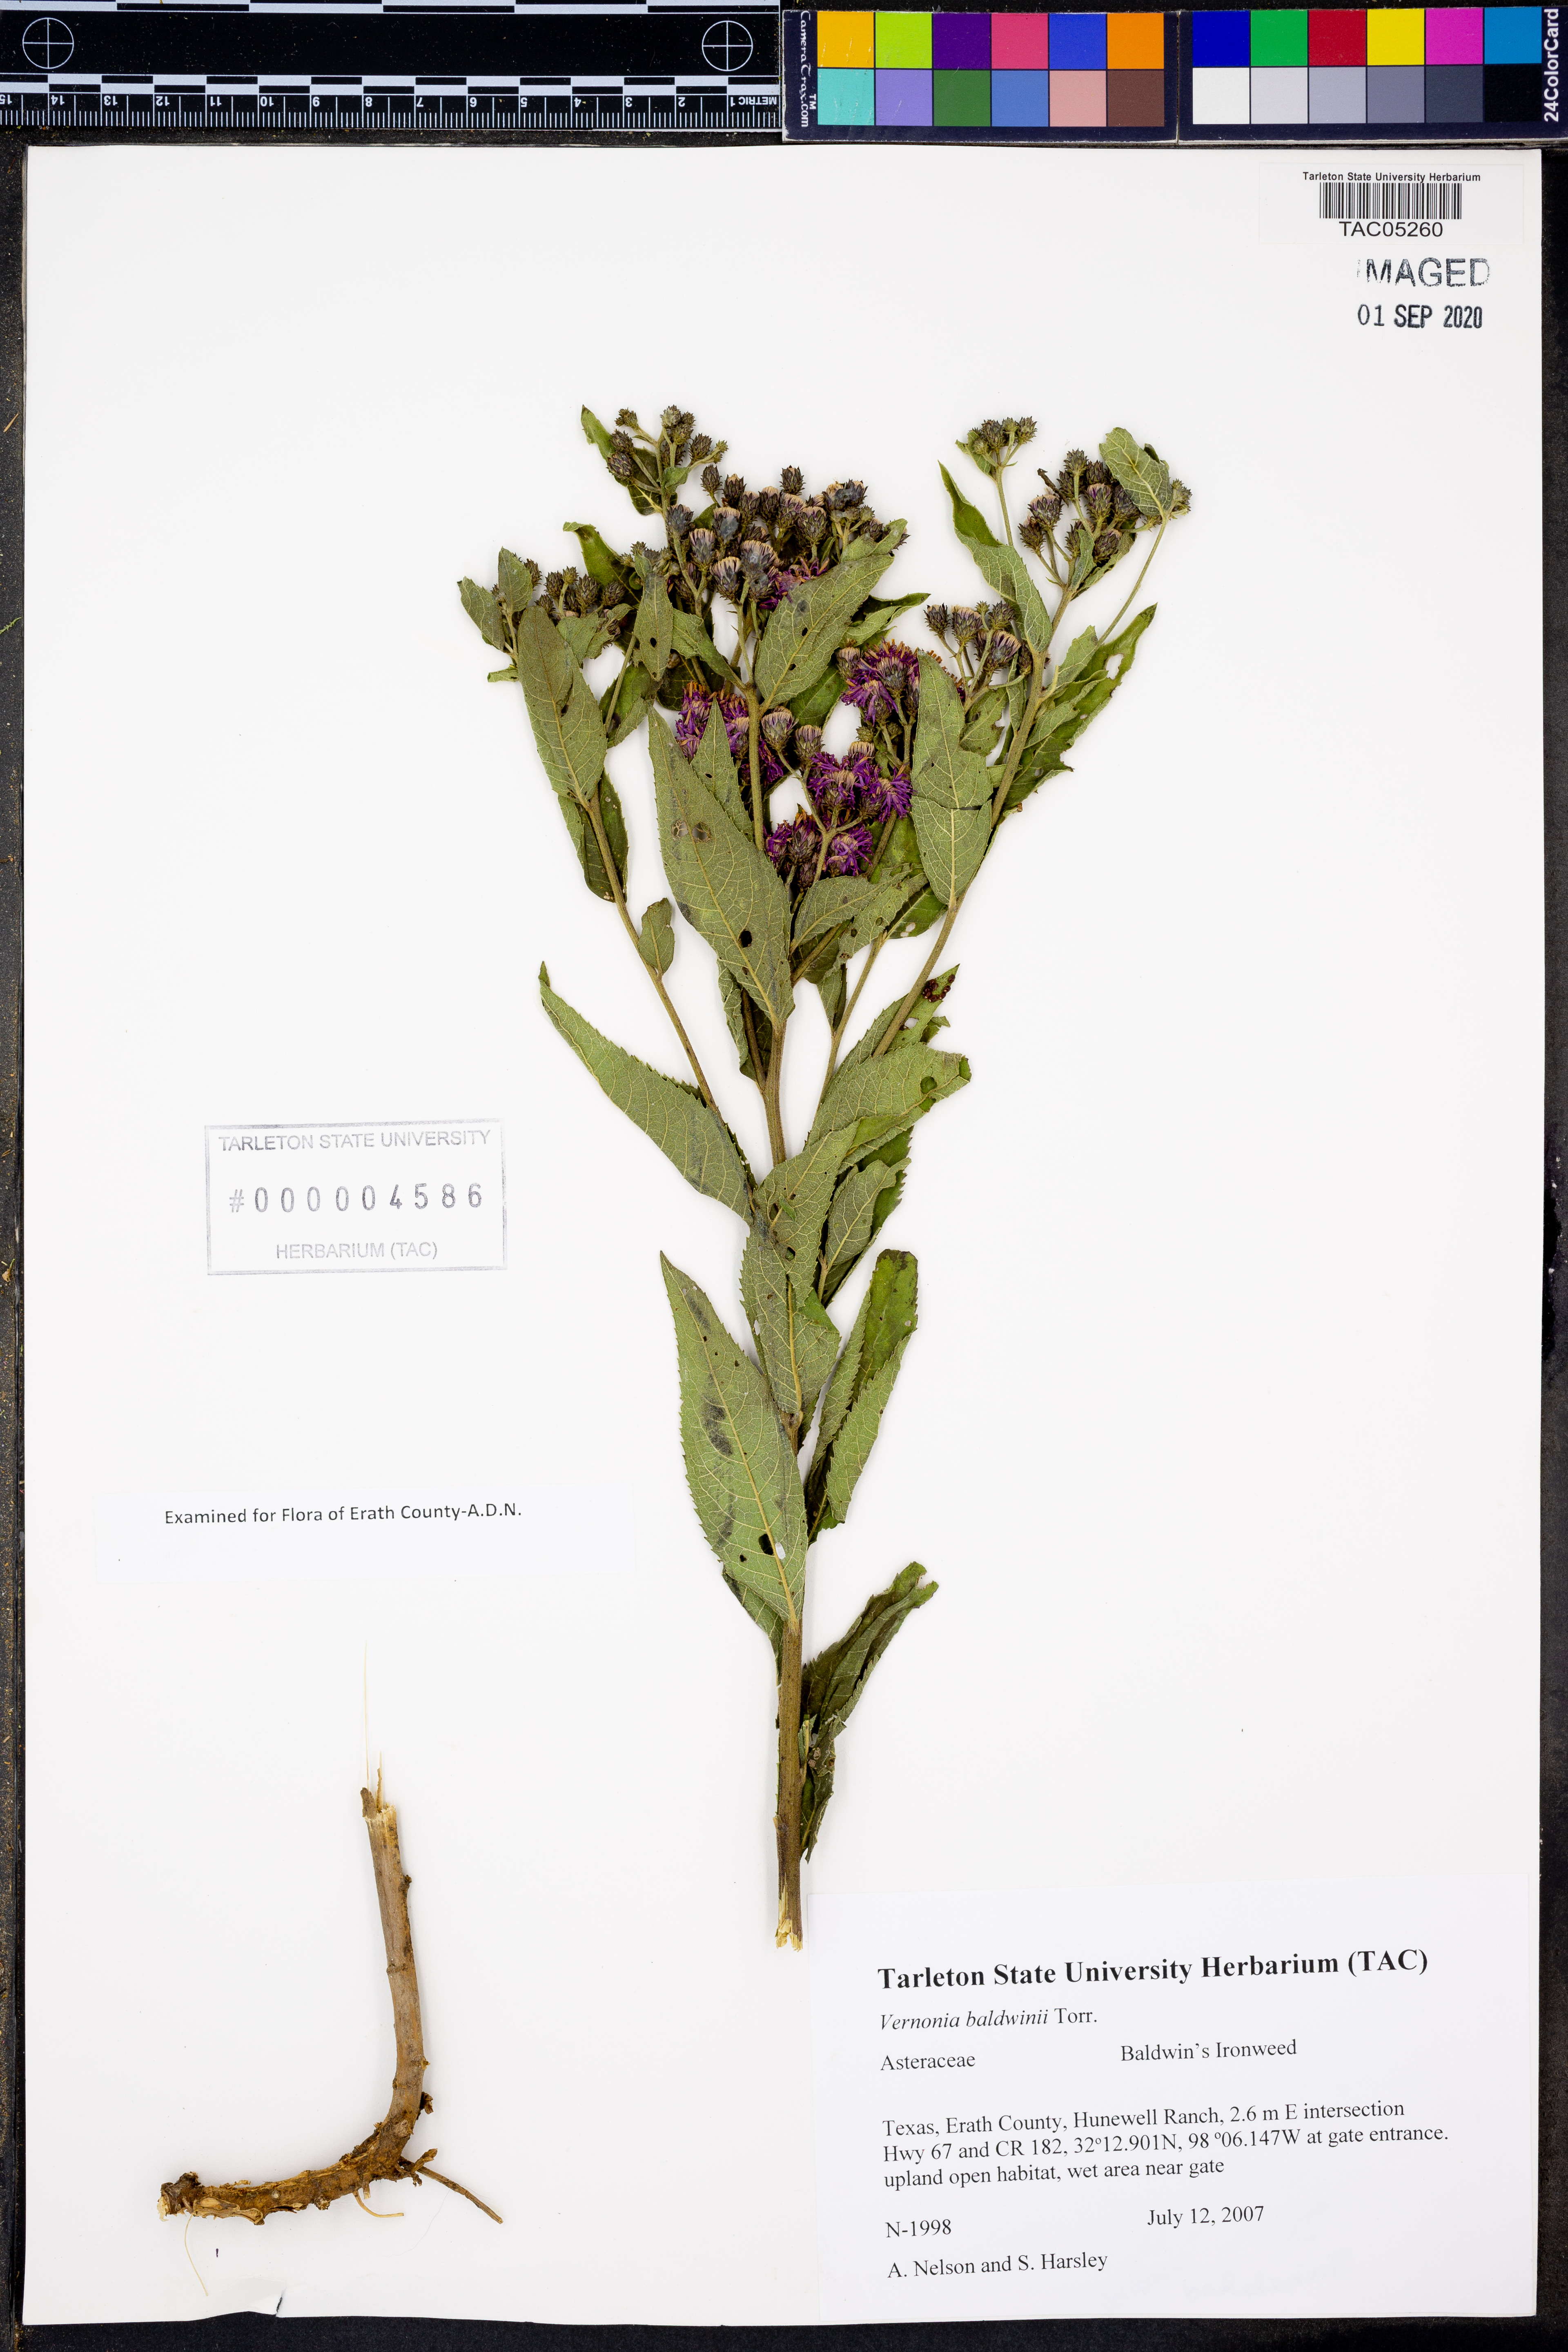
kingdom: Plantae
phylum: Tracheophyta
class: Magnoliopsida
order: Asterales
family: Asteraceae
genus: Vernonia
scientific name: Vernonia baldwinii
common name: Western ironweed
